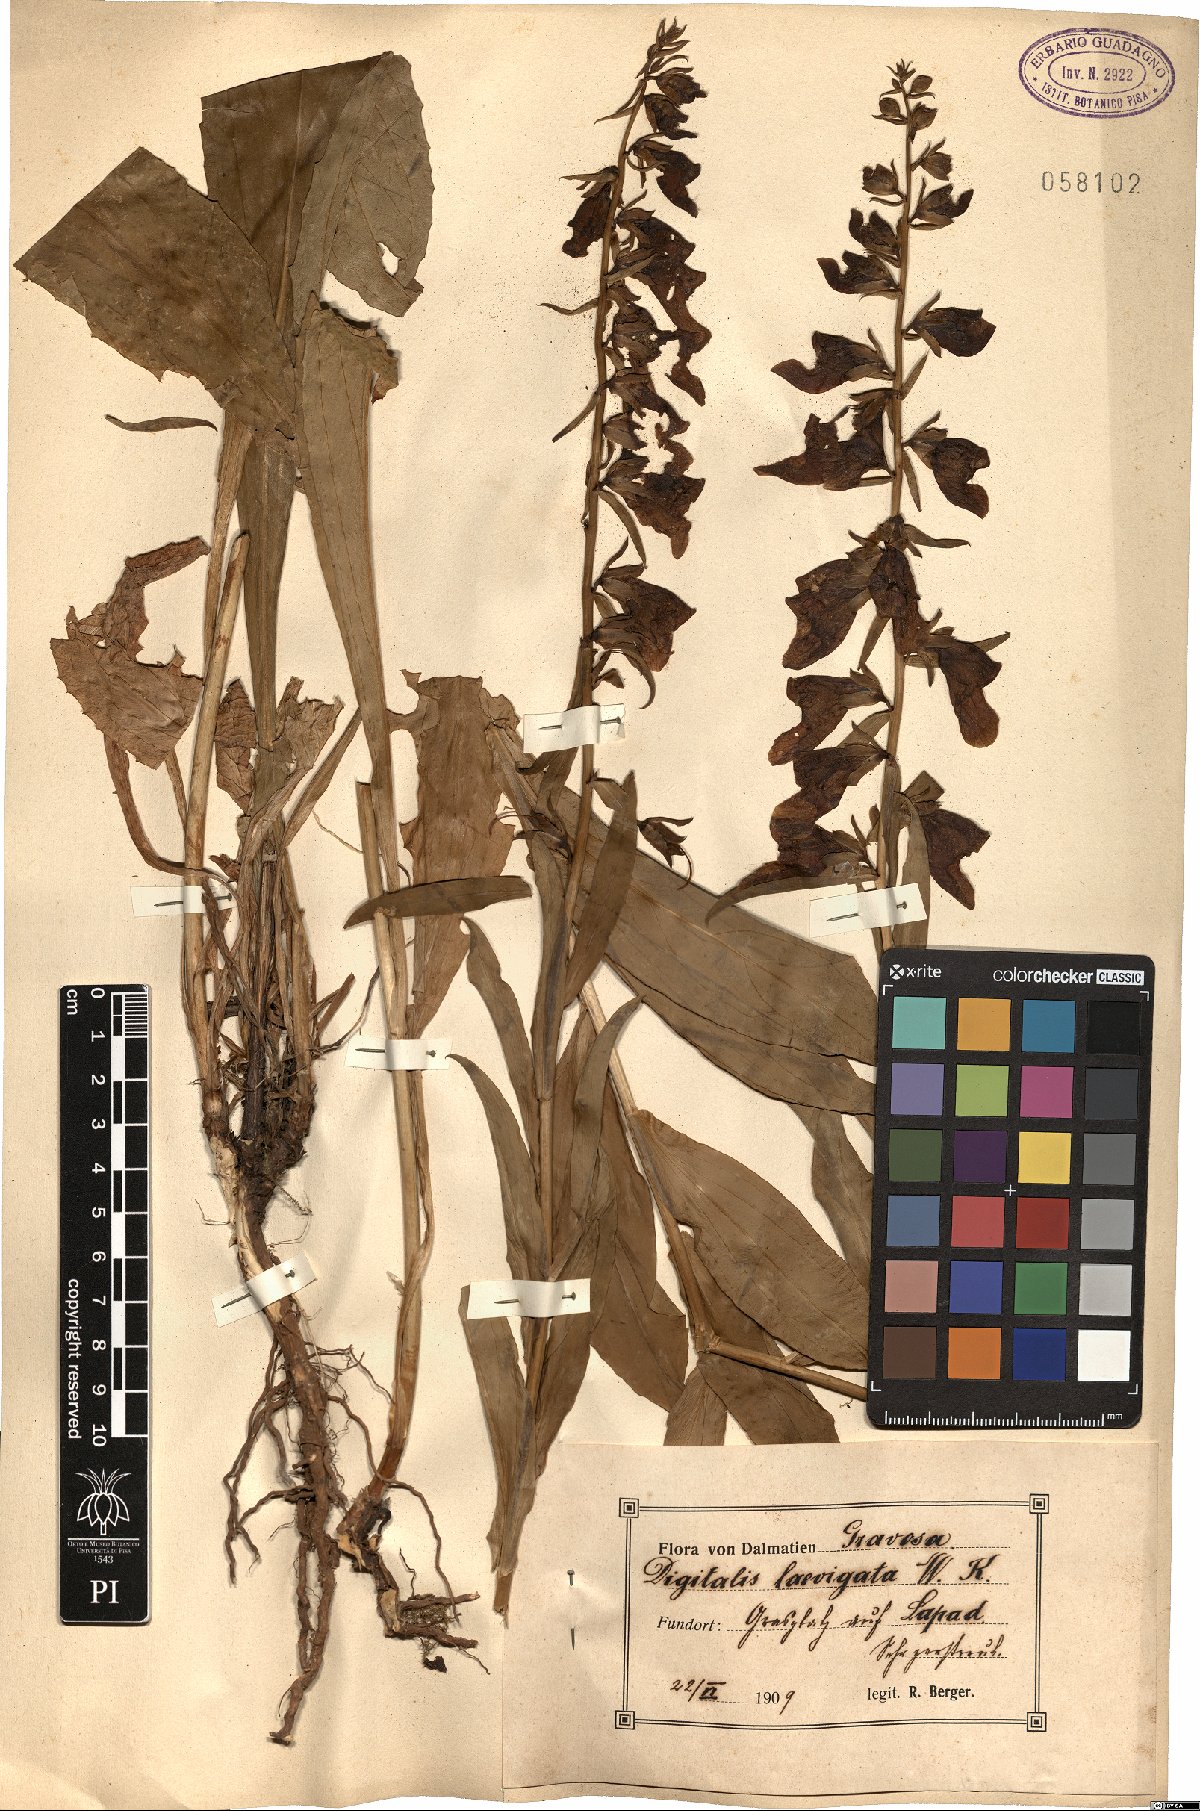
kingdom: Plantae
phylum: Tracheophyta
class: Magnoliopsida
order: Lamiales
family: Plantaginaceae
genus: Digitalis
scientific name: Digitalis laevigata
